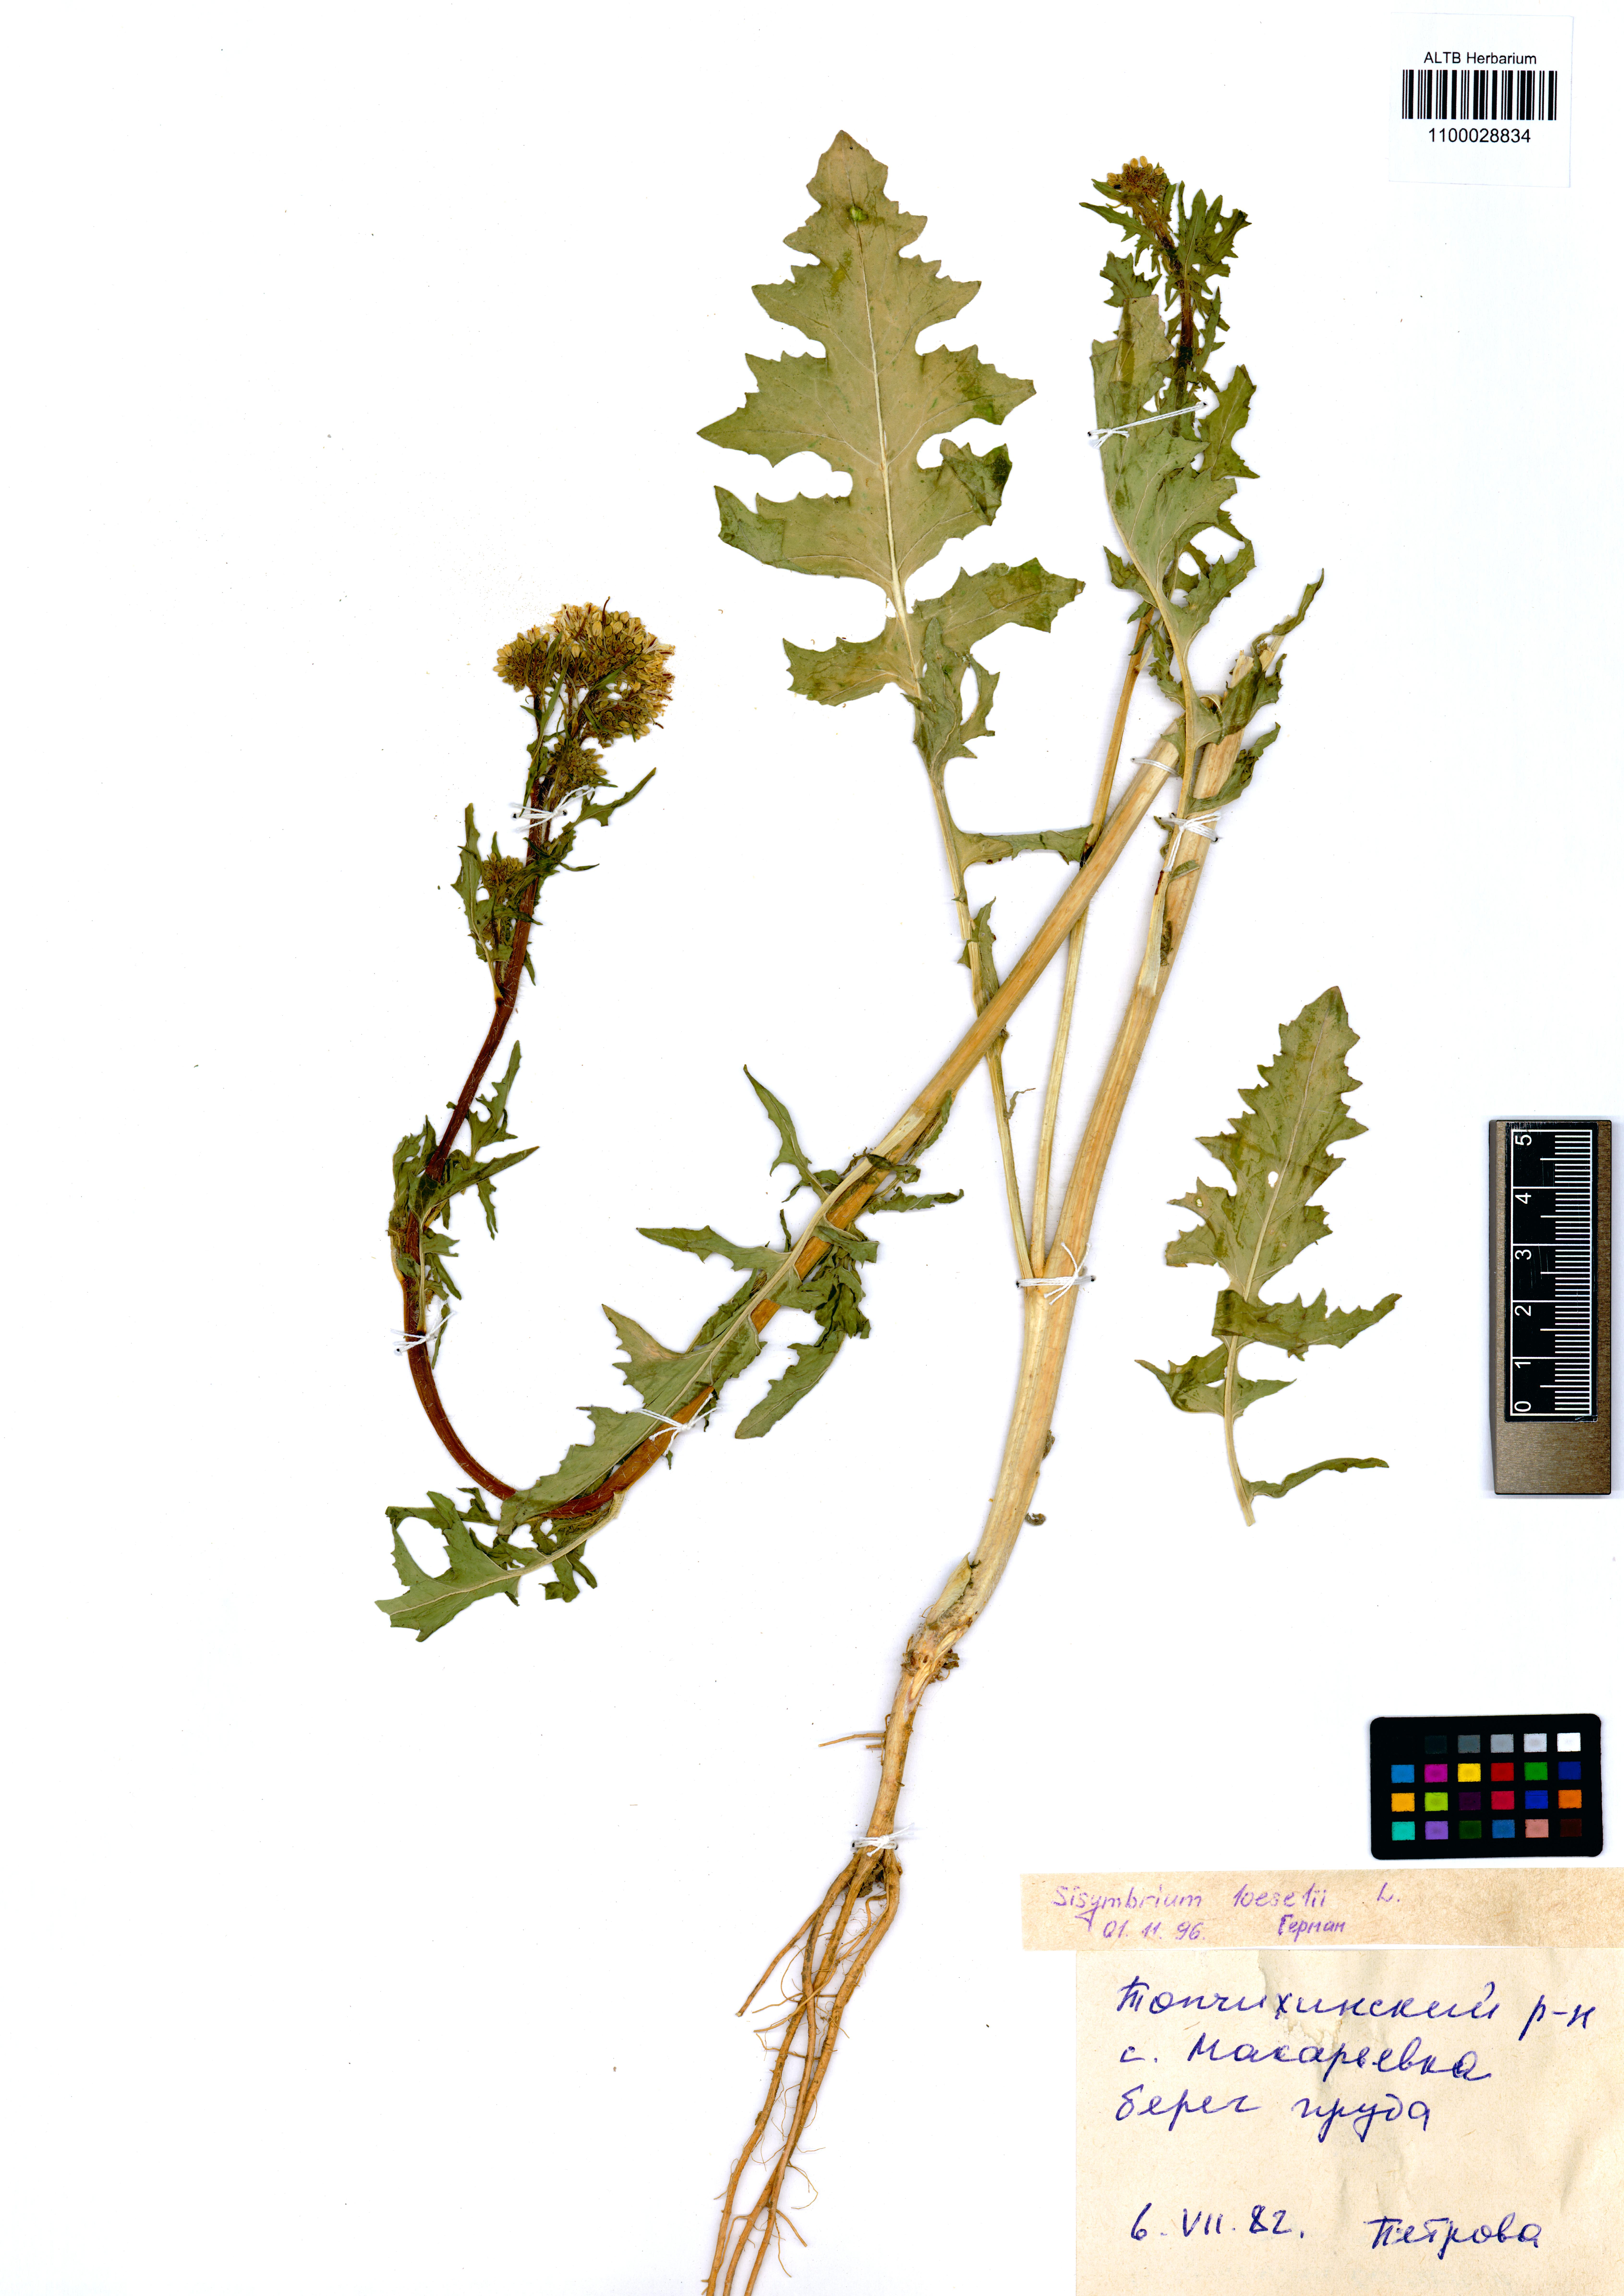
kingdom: Plantae
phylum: Tracheophyta
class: Magnoliopsida
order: Brassicales
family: Brassicaceae
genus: Sisymbrium
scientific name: Sisymbrium loeselii
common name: False london-rocket
